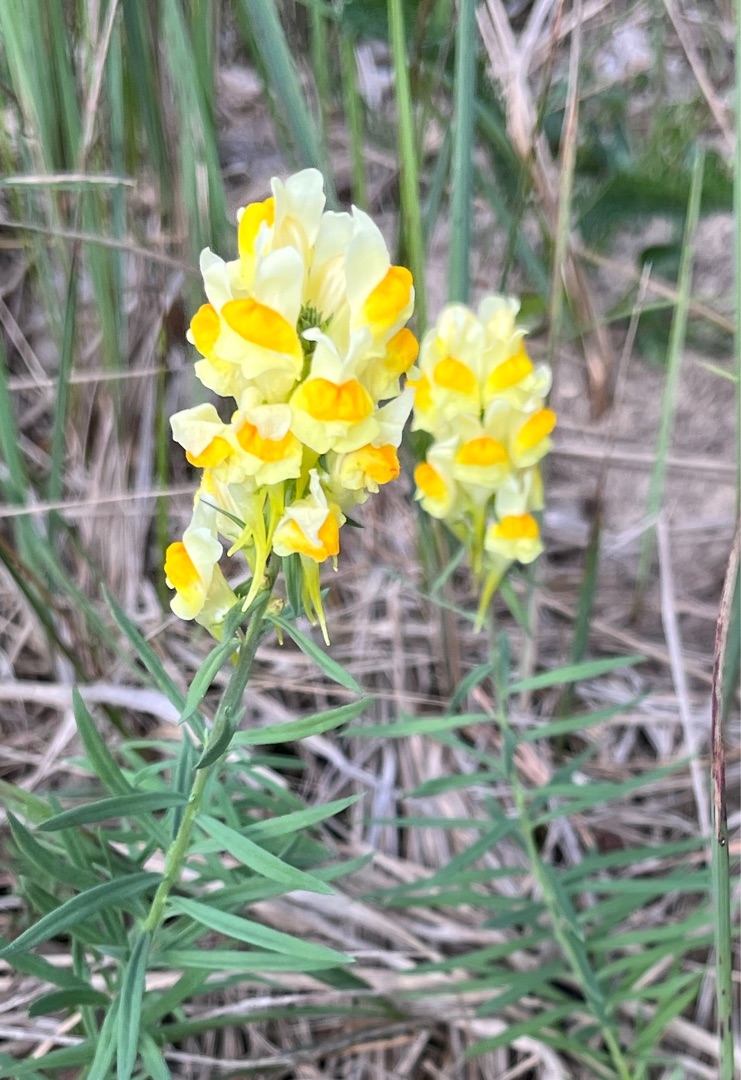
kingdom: Plantae
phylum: Tracheophyta
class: Magnoliopsida
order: Lamiales
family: Plantaginaceae
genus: Linaria
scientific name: Linaria vulgaris
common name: Almindelig torskemund
